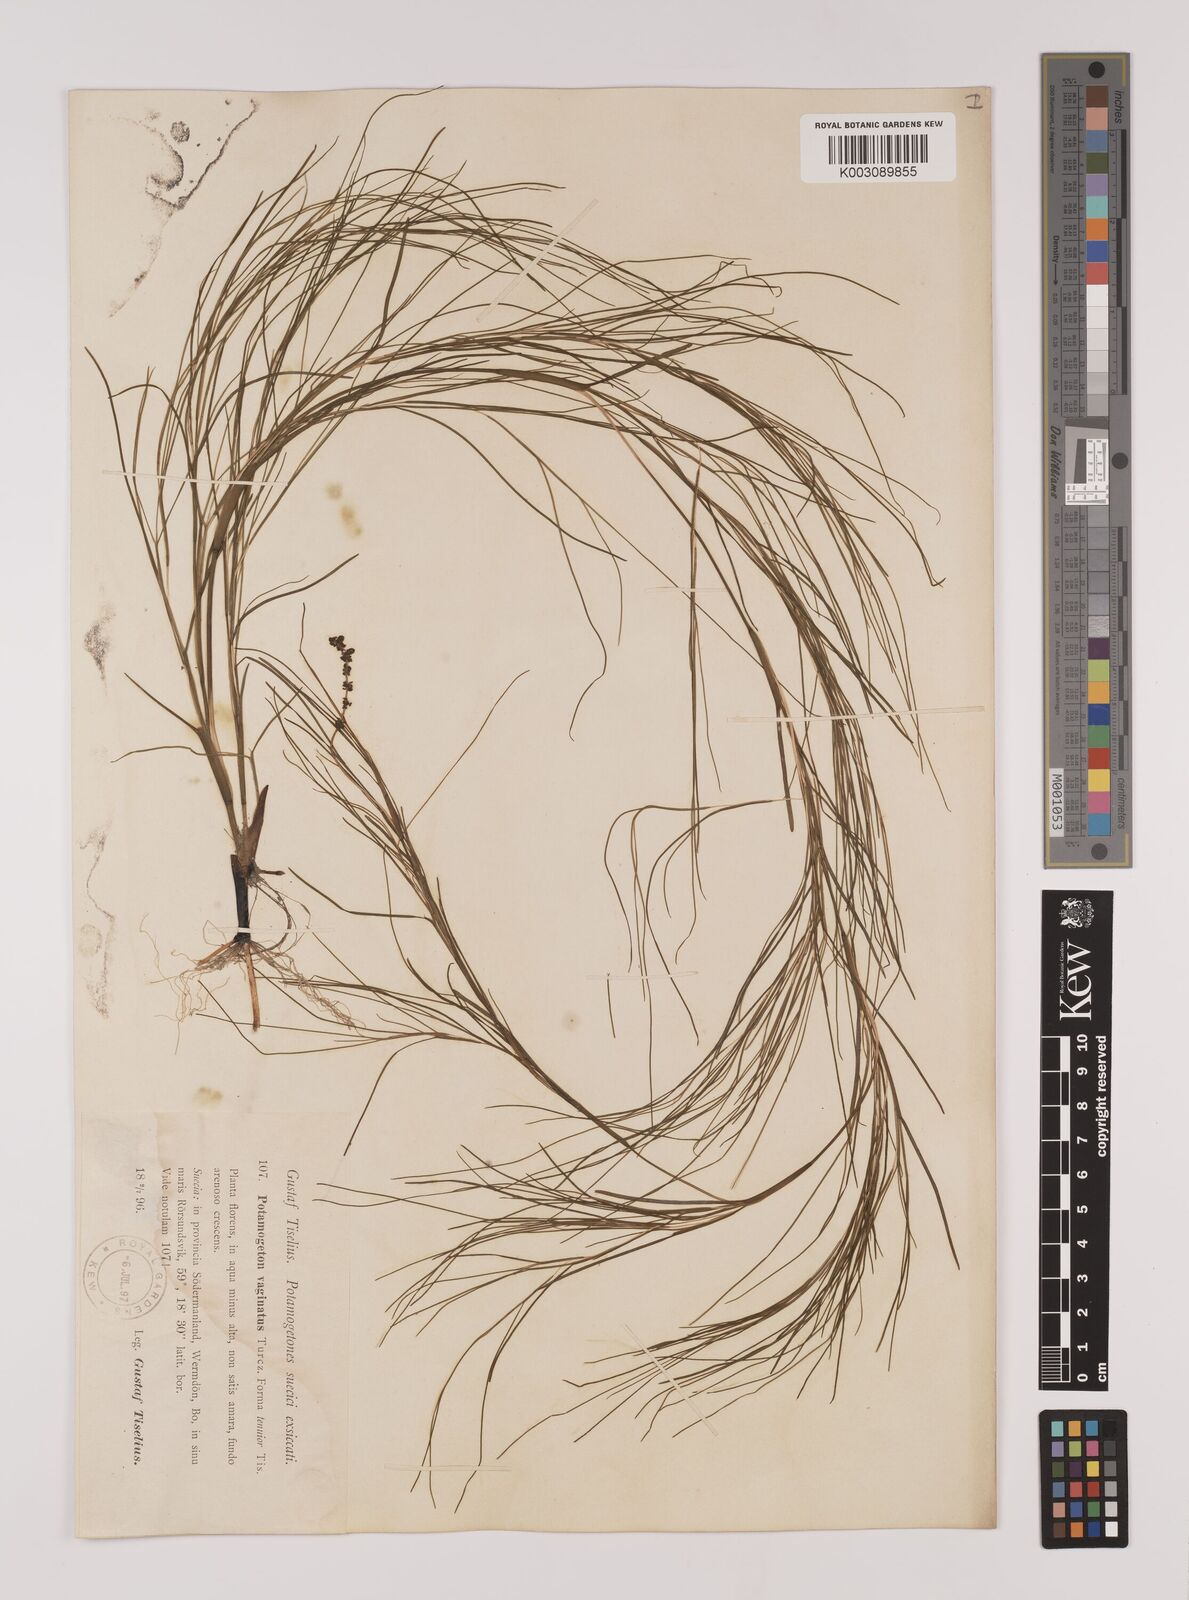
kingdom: Plantae
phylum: Tracheophyta
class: Liliopsida
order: Alismatales
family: Potamogetonaceae
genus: Stuckenia
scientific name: Stuckenia pectinata
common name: Sago pondweed
